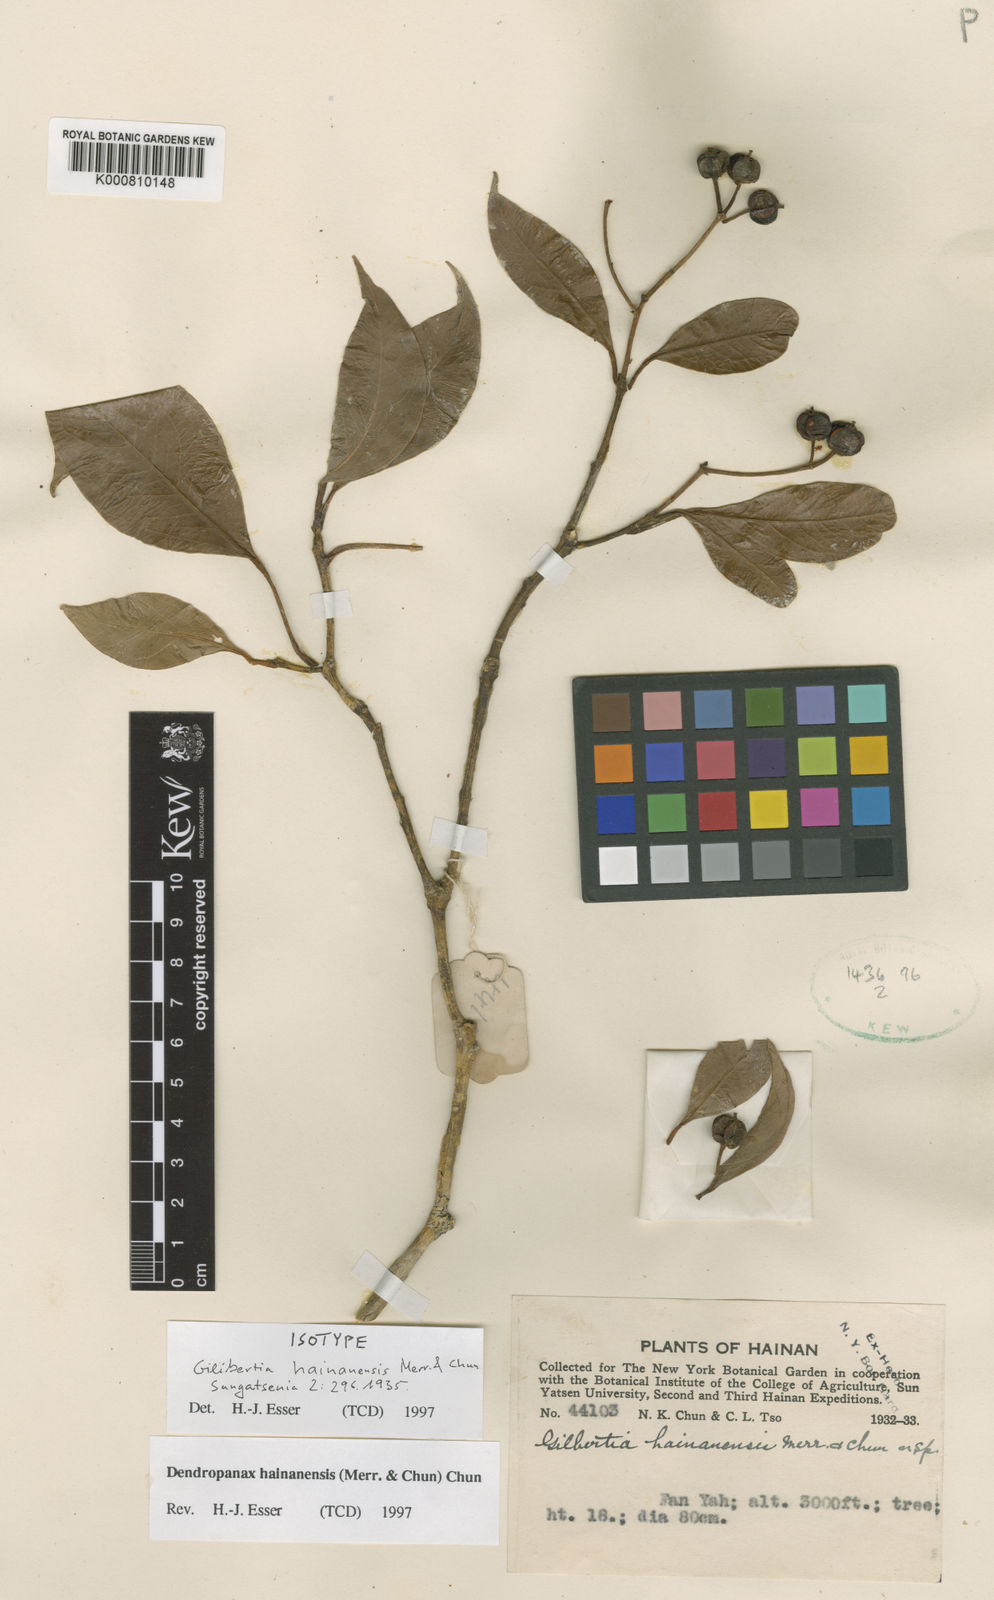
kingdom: Plantae
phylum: Tracheophyta
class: Magnoliopsida
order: Apiales
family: Araliaceae
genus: Dendropanax
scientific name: Dendropanax hainanensis
